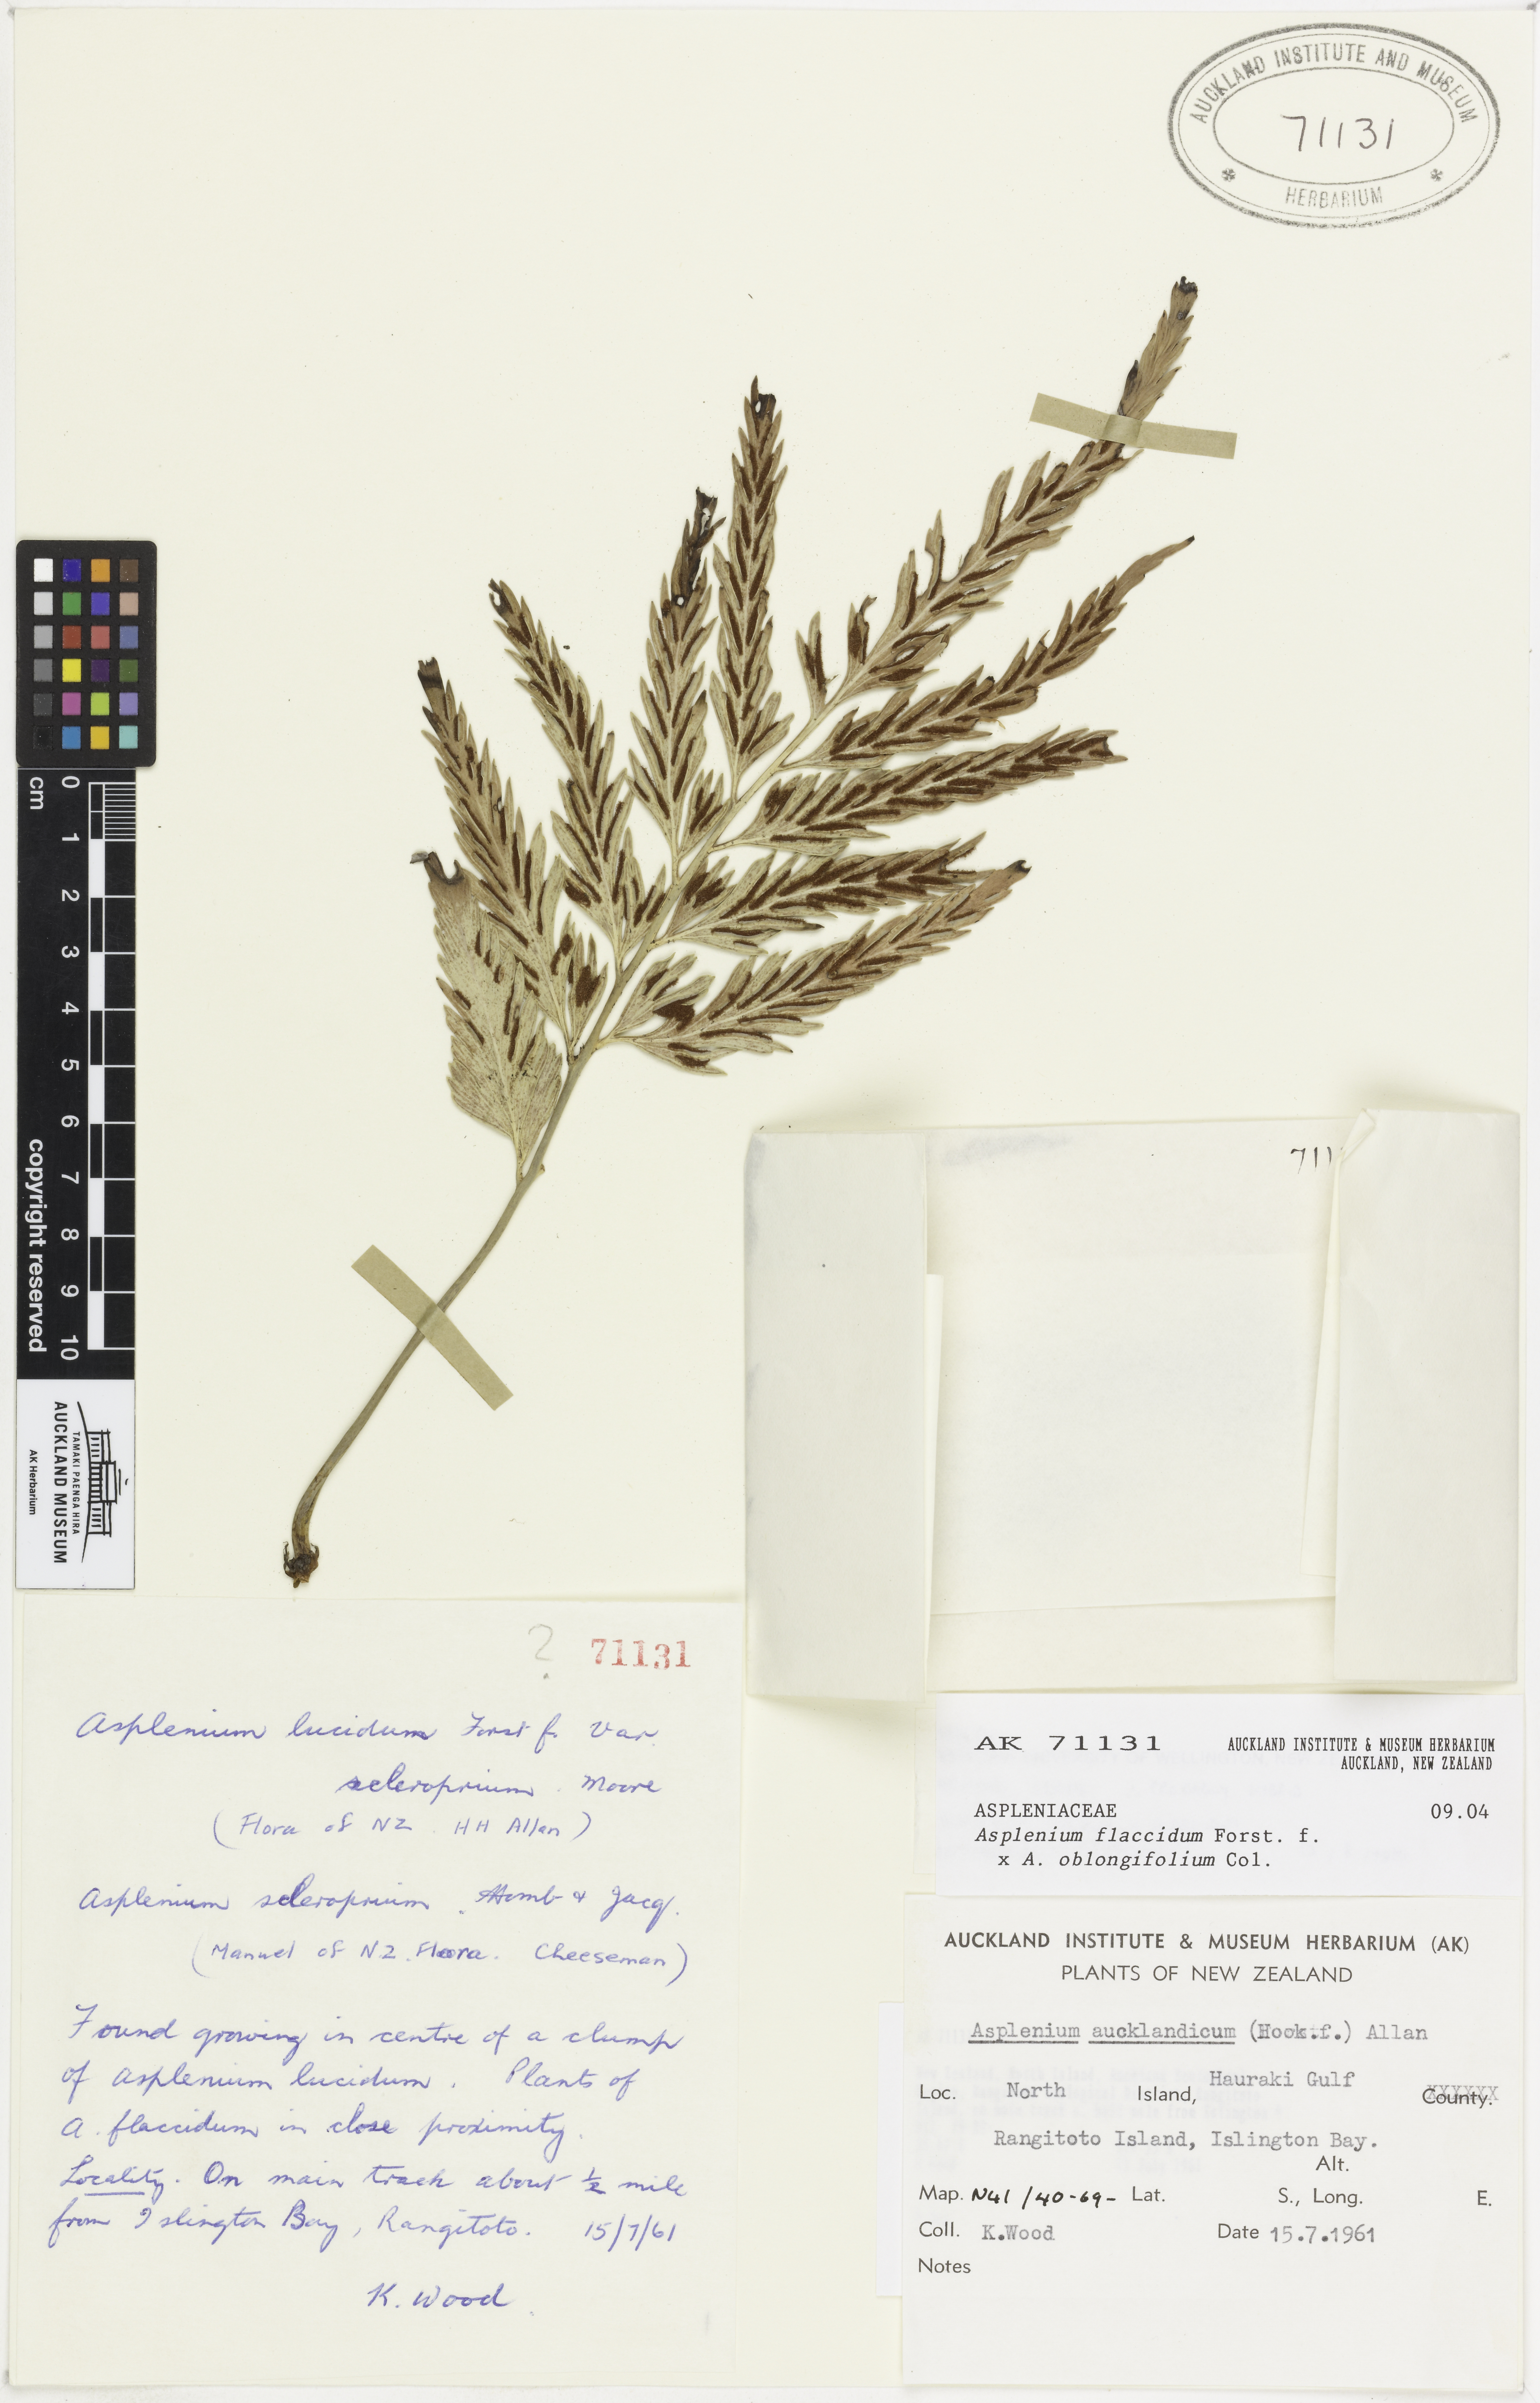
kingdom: Plantae
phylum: Tracheophyta
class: Polypodiopsida
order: Polypodiales
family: Aspleniaceae
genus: Asplenium
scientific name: Asplenium
